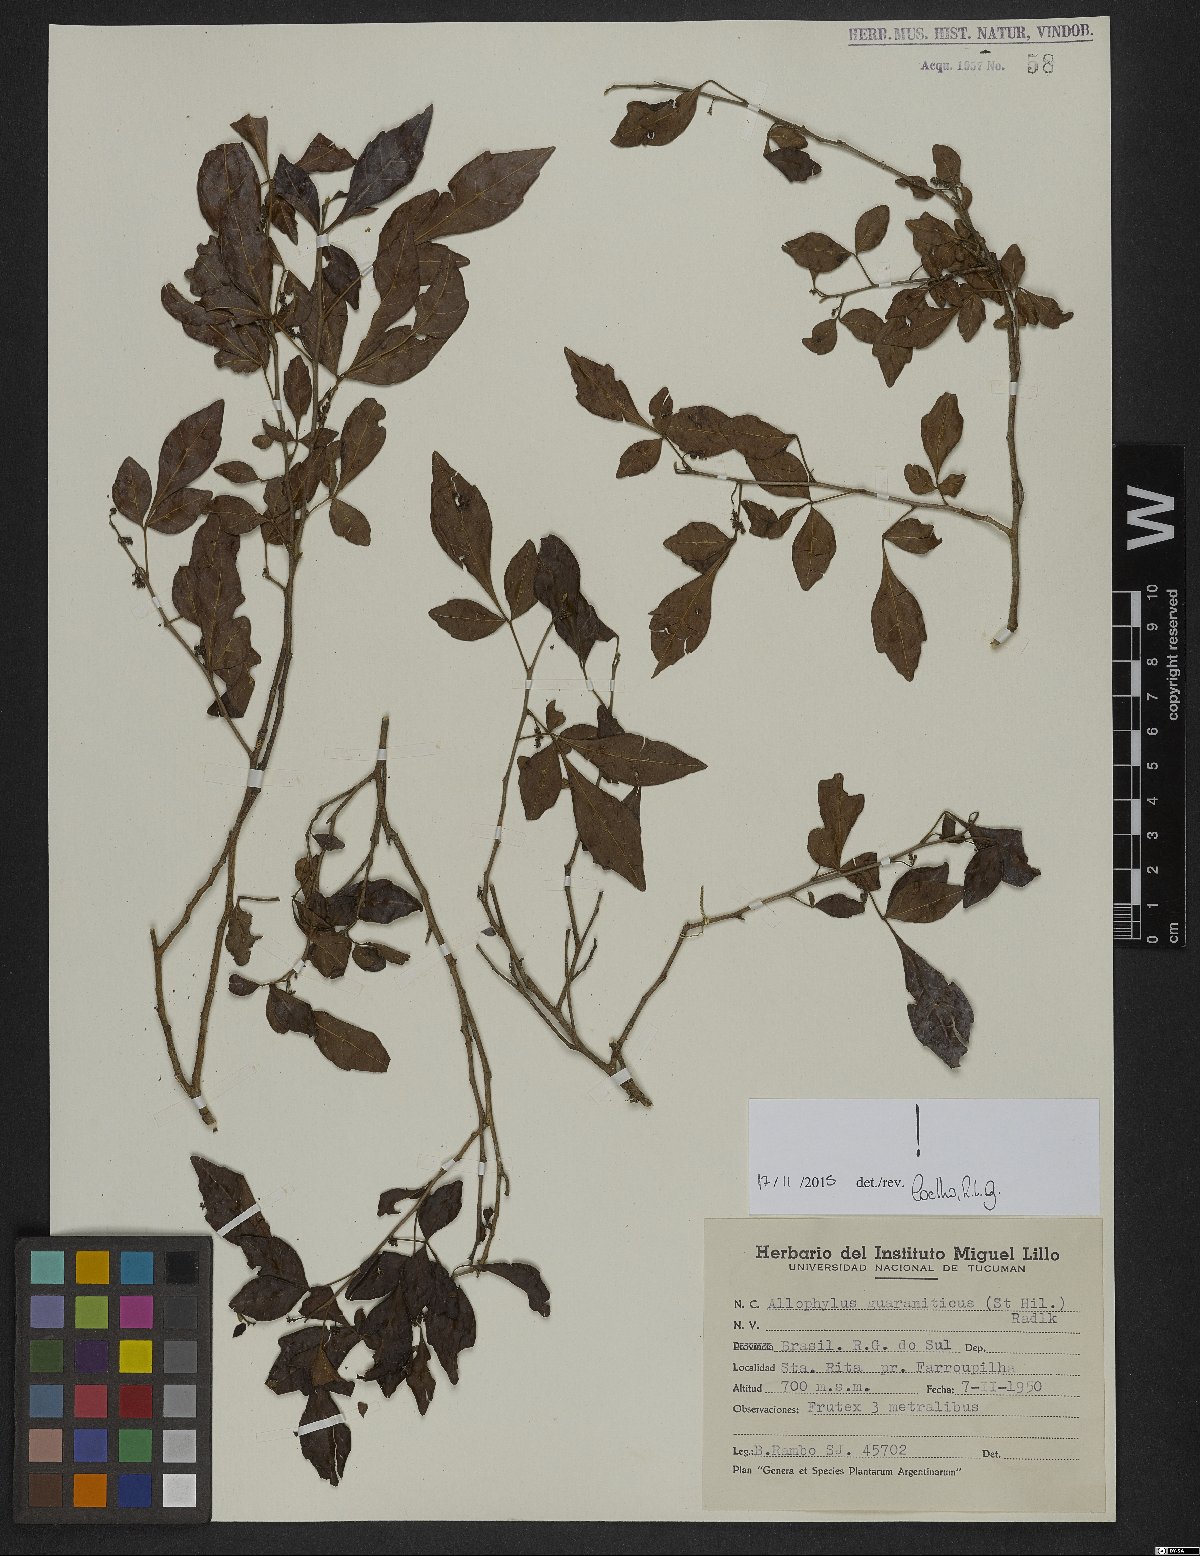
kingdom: Plantae
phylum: Tracheophyta
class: Magnoliopsida
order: Sapindales
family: Sapindaceae
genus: Allophylus
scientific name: Allophylus guaraniticus
